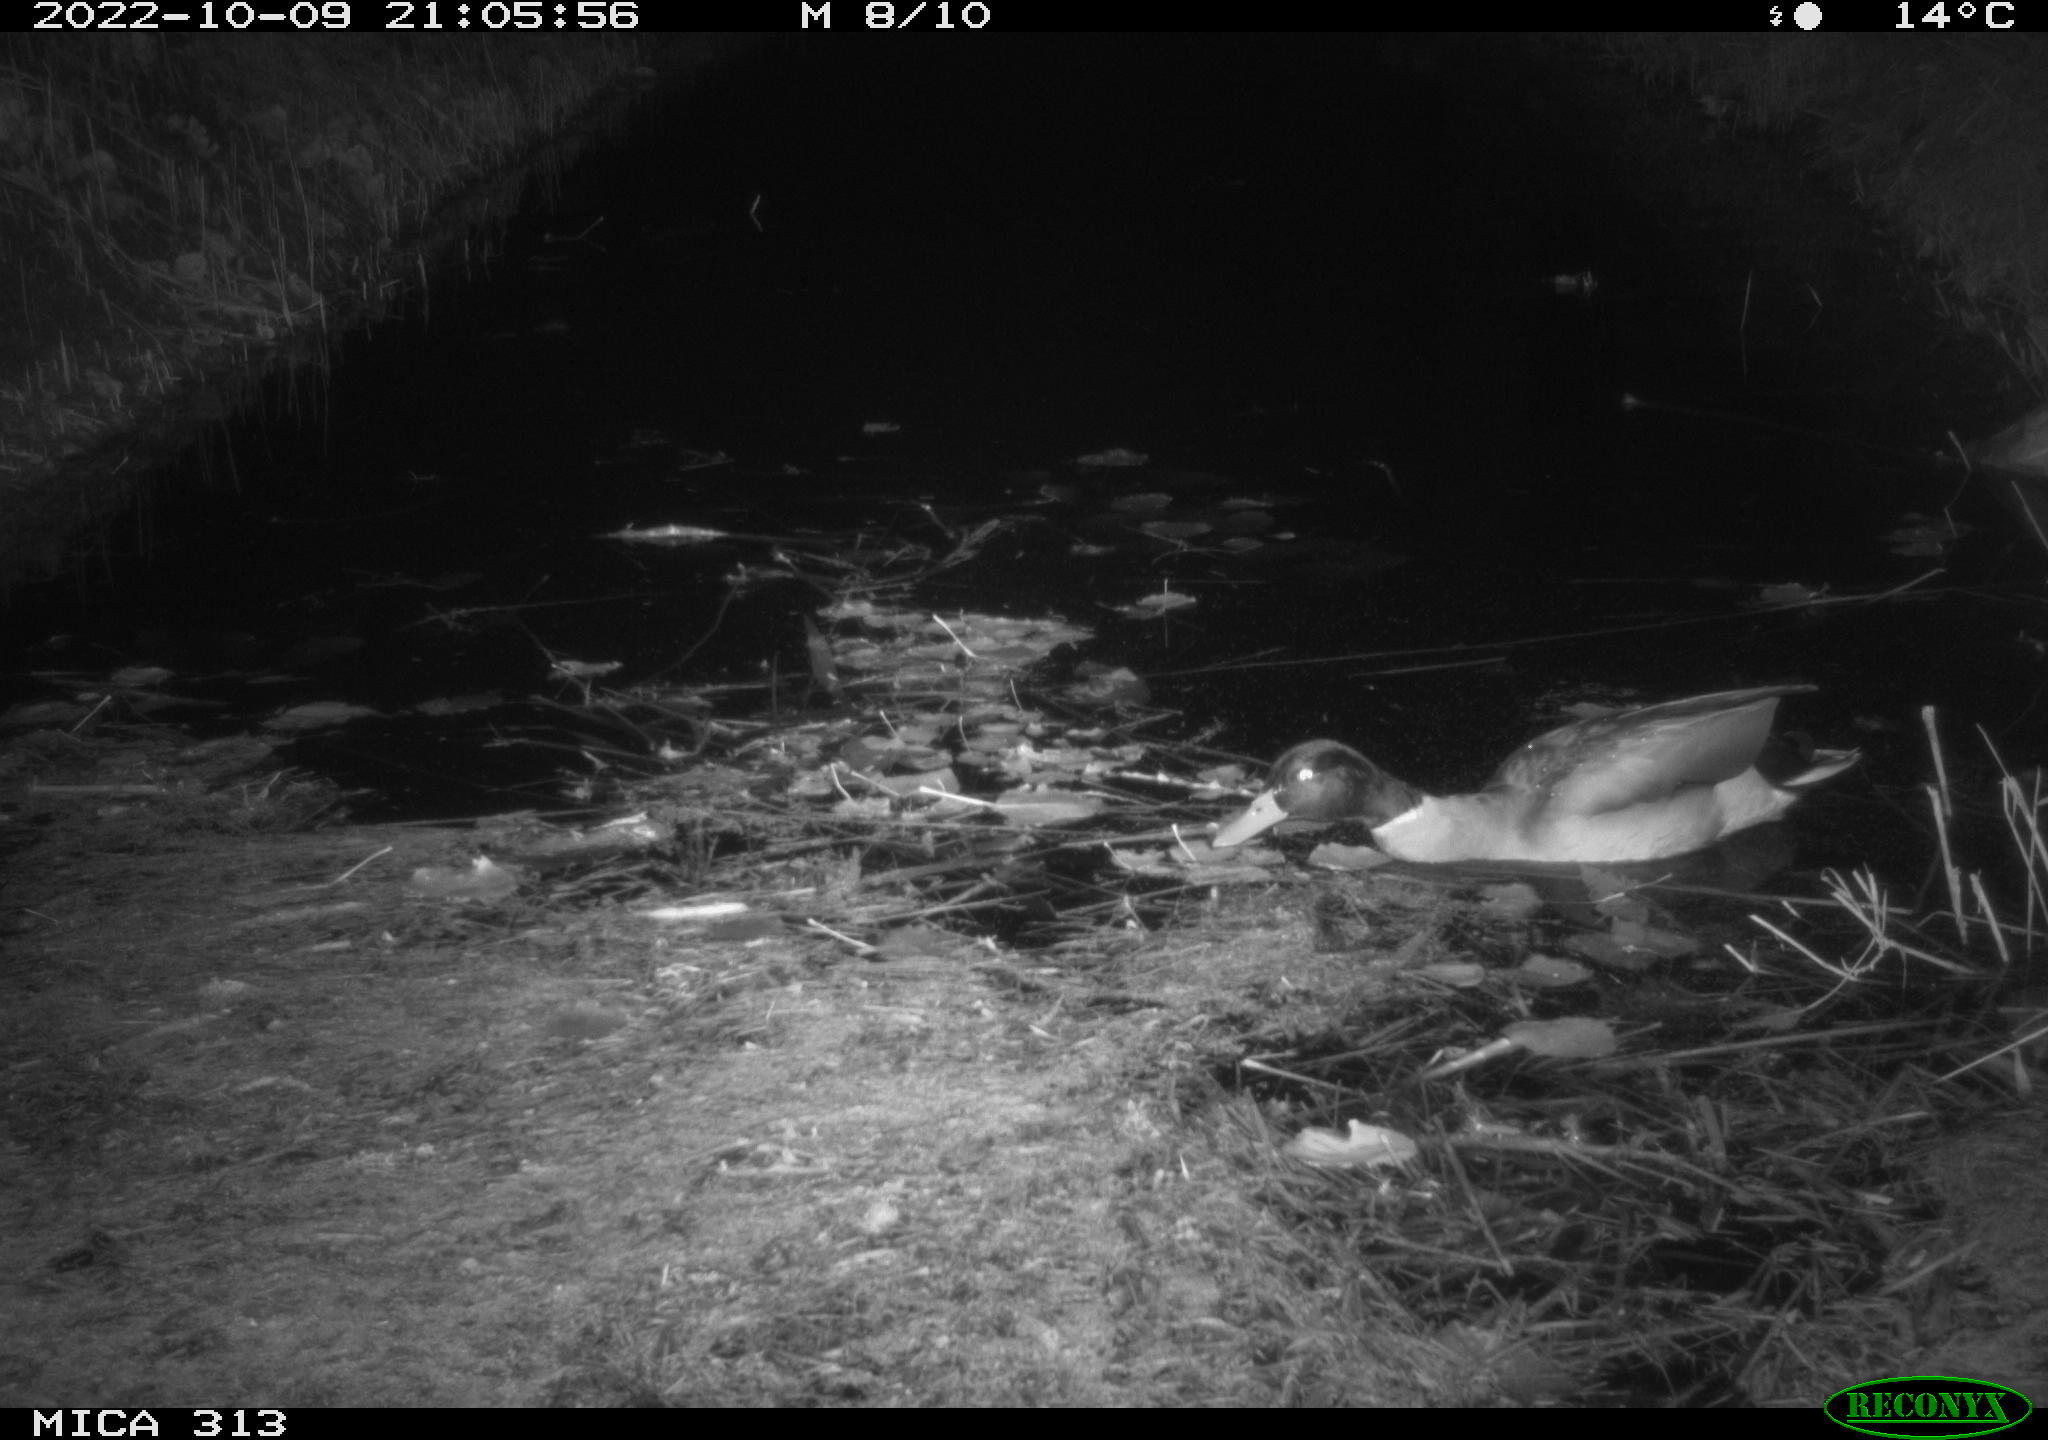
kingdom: Animalia
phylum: Chordata
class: Aves
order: Anseriformes
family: Anatidae
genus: Anas
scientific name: Anas
